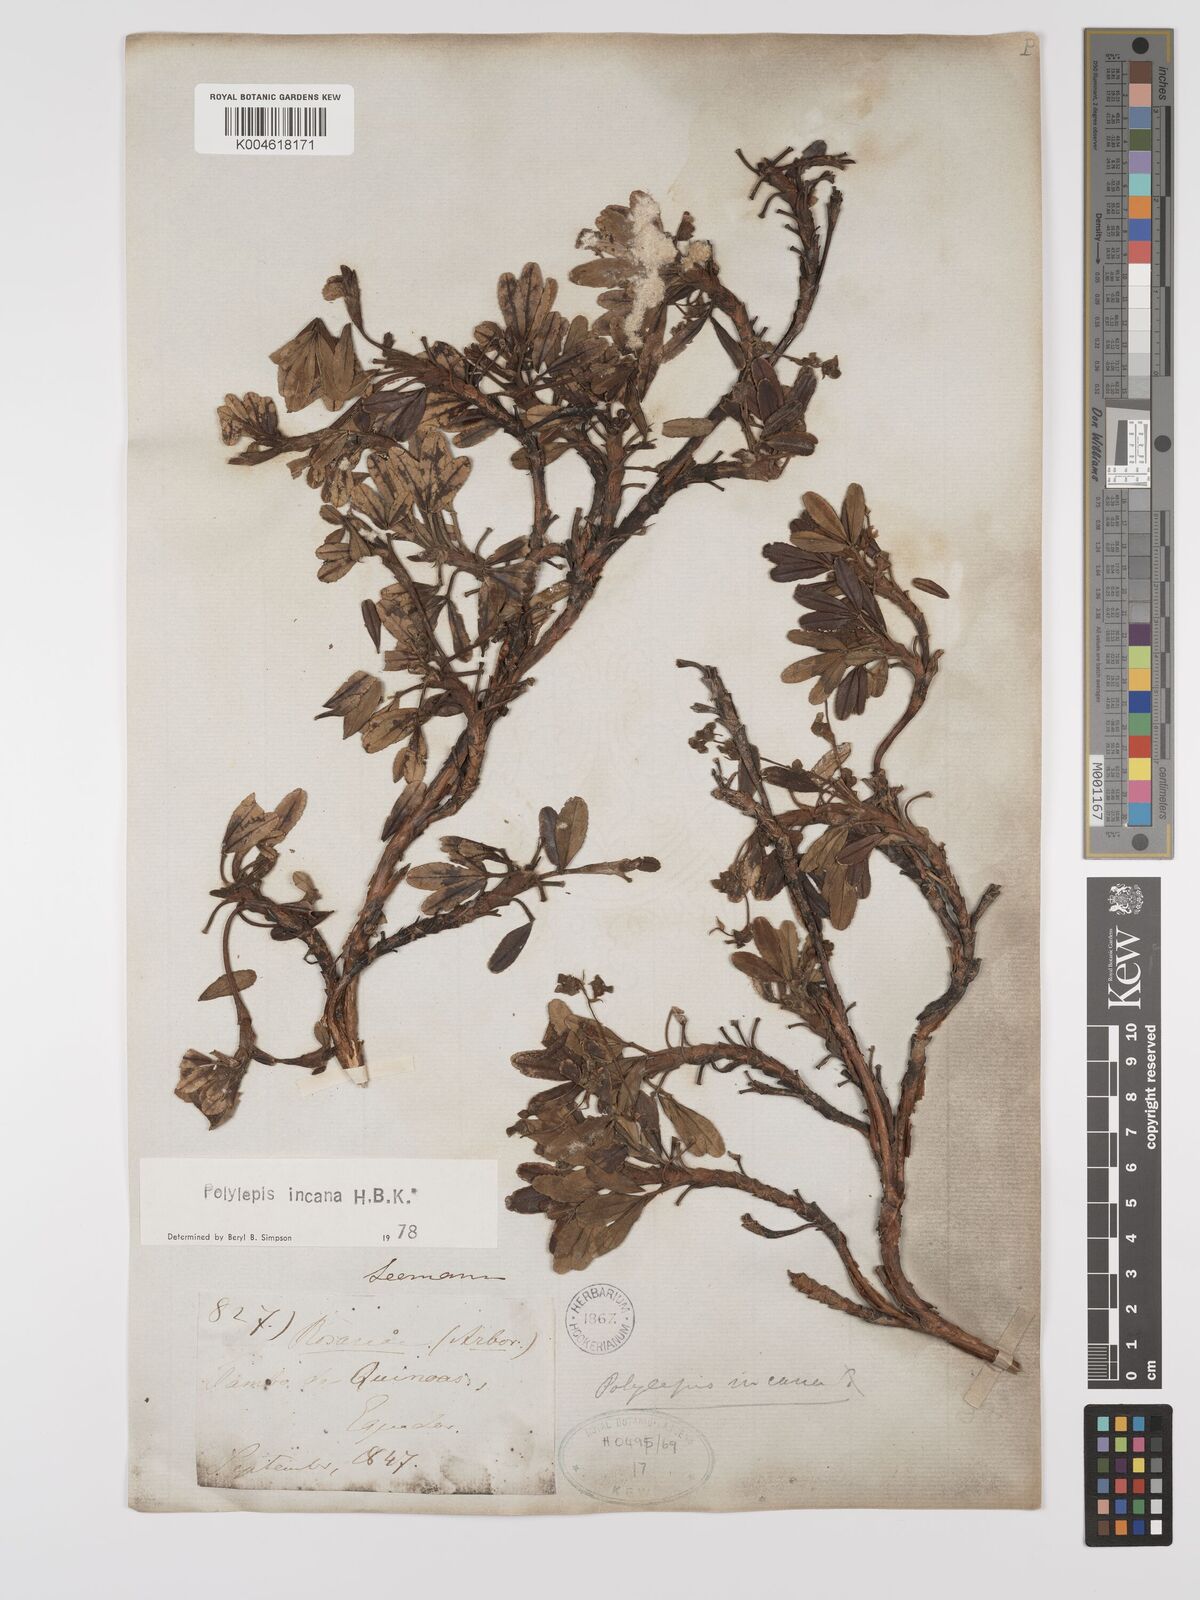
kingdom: Plantae
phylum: Tracheophyta
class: Magnoliopsida
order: Rosales
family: Rosaceae
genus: Polylepis
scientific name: Polylepis incana
